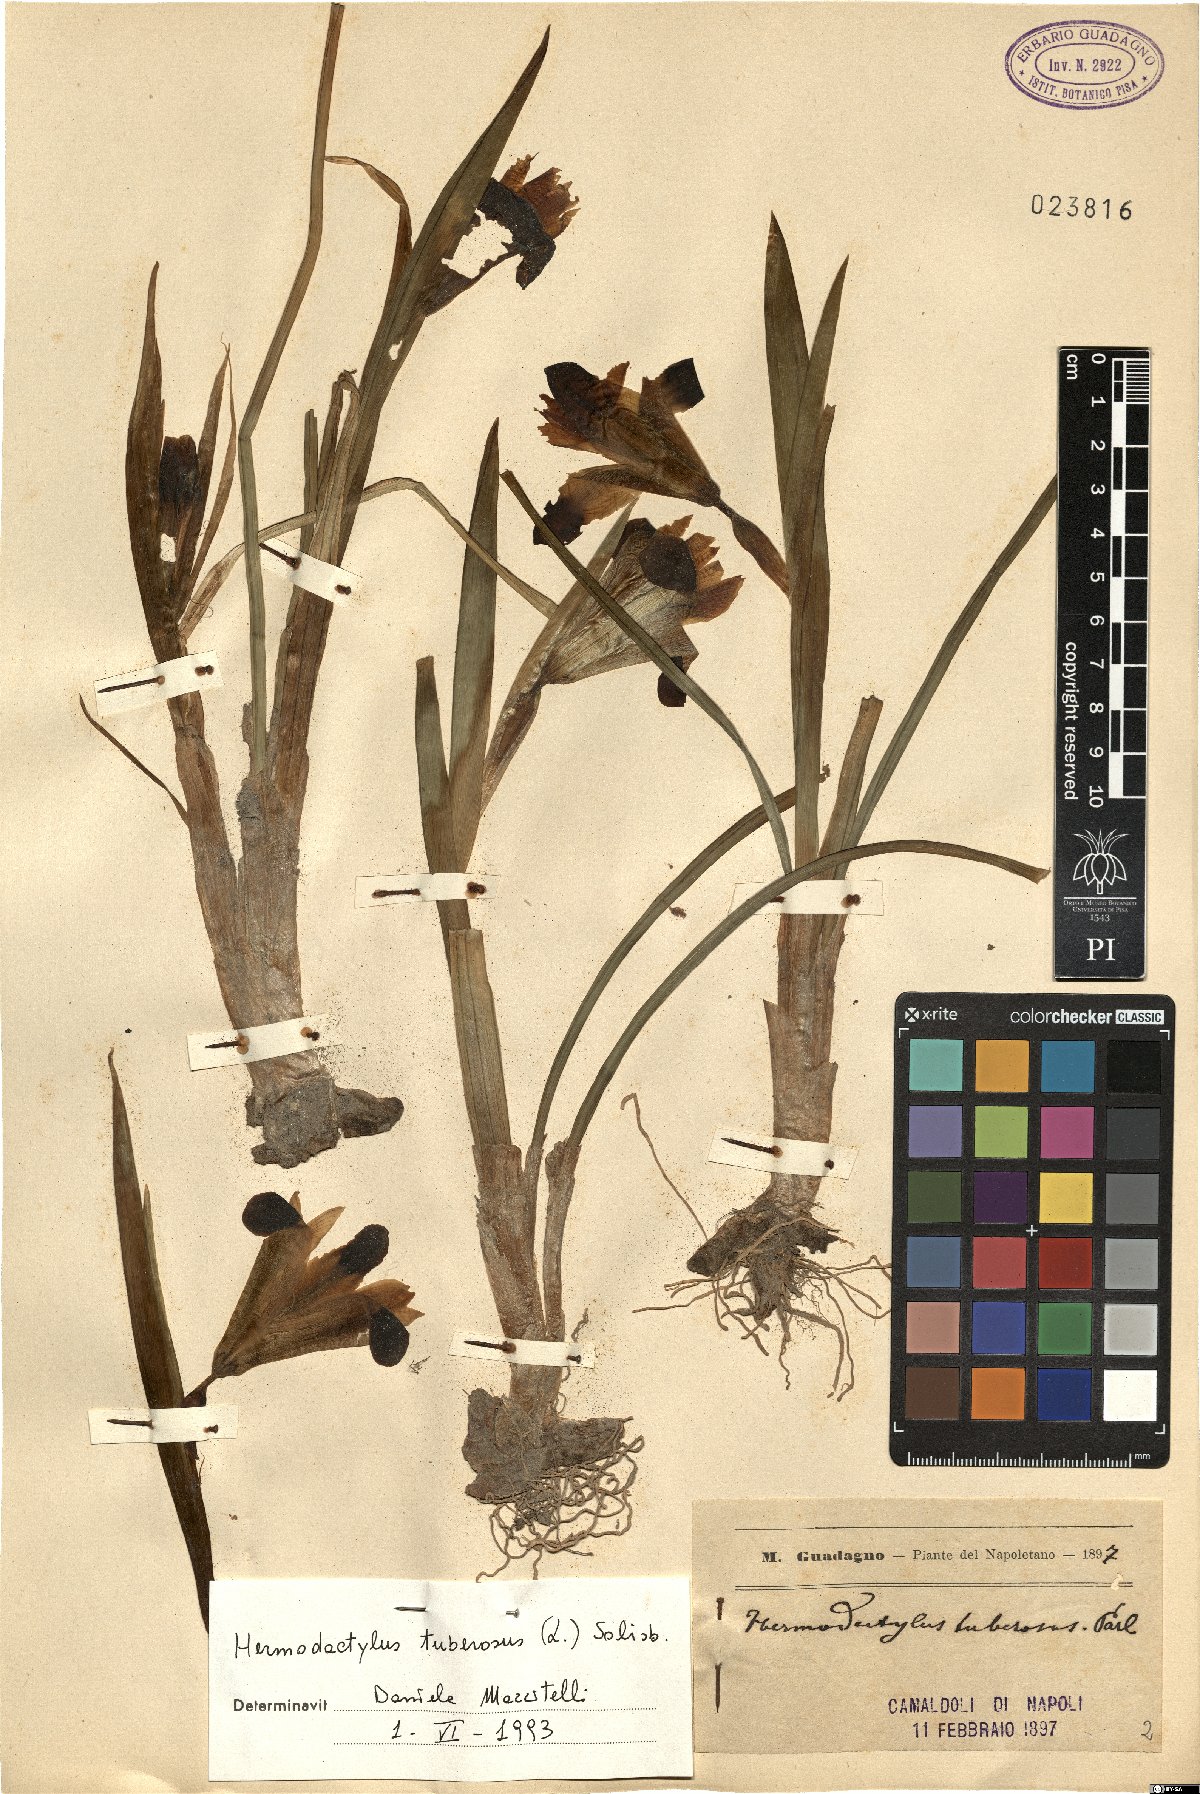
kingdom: Plantae
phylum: Tracheophyta
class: Liliopsida
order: Asparagales
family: Iridaceae
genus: Iris
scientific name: Iris tuberosa
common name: Snake's-head iris
